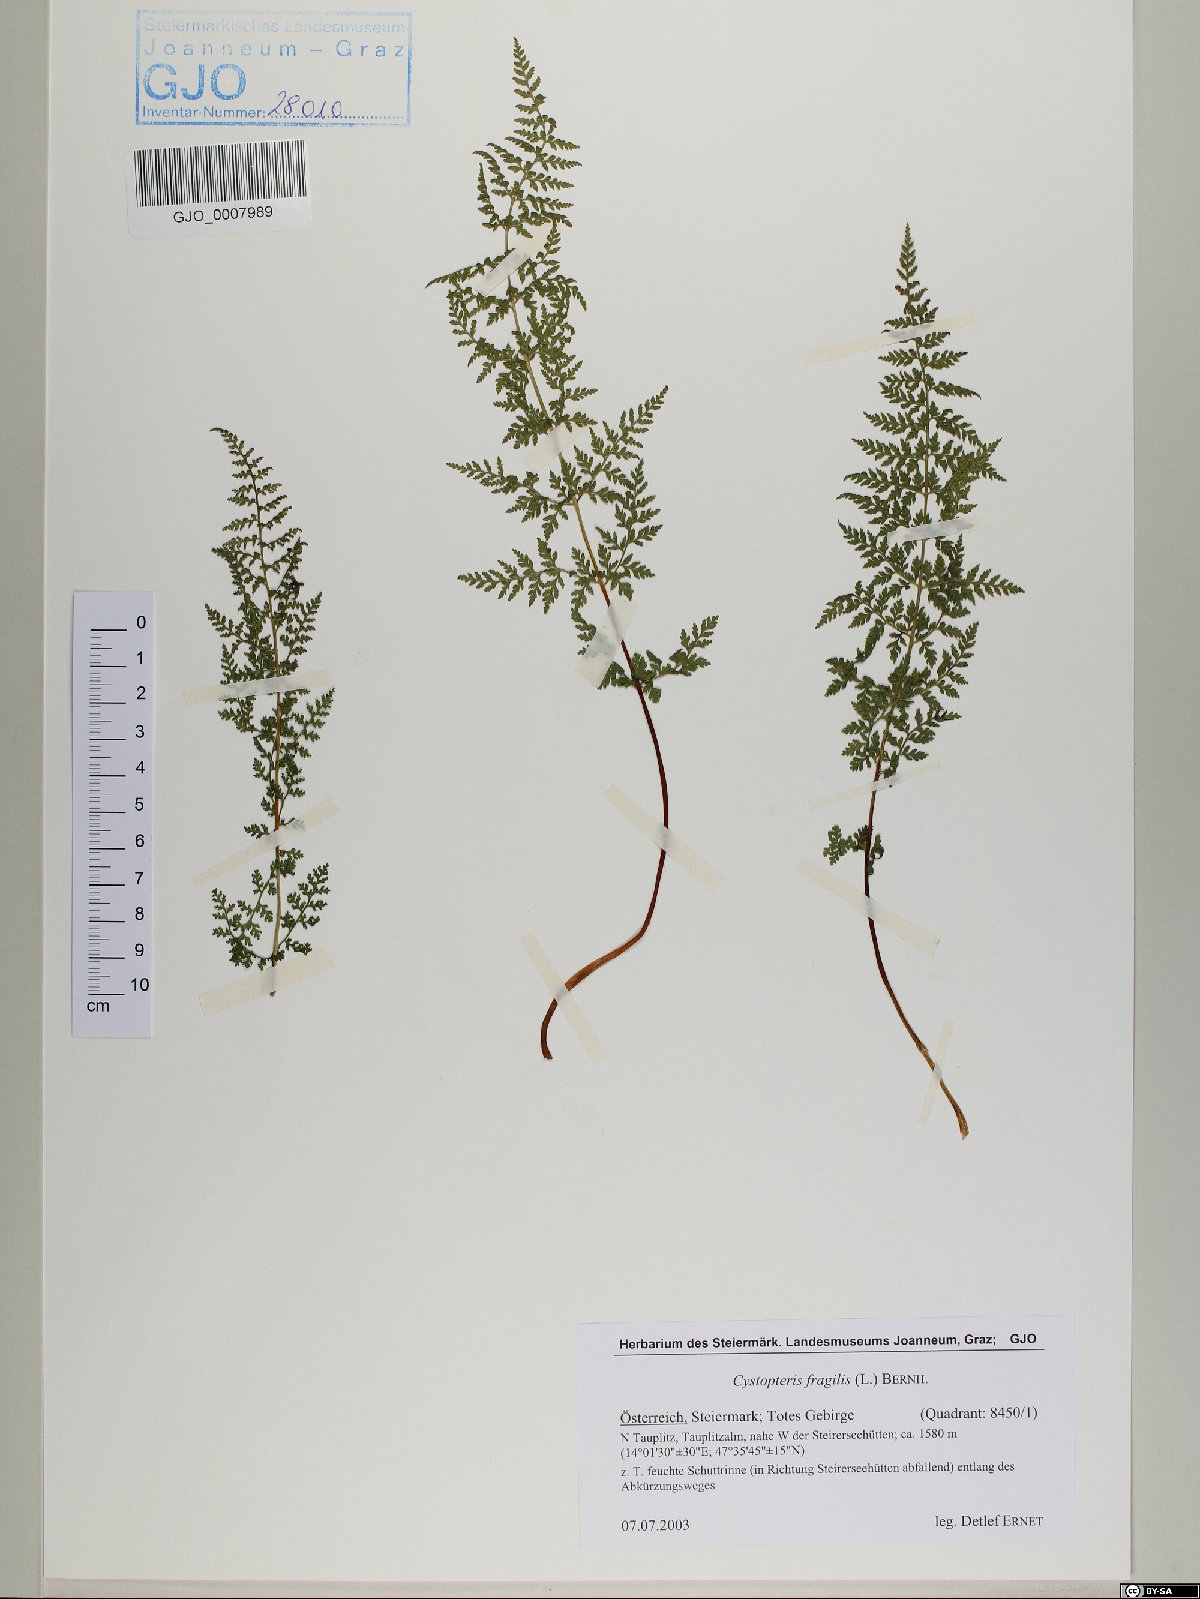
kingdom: Plantae
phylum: Tracheophyta
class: Polypodiopsida
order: Polypodiales
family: Cystopteridaceae
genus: Cystopteris
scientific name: Cystopteris fragilis
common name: Brittle bladder fern
